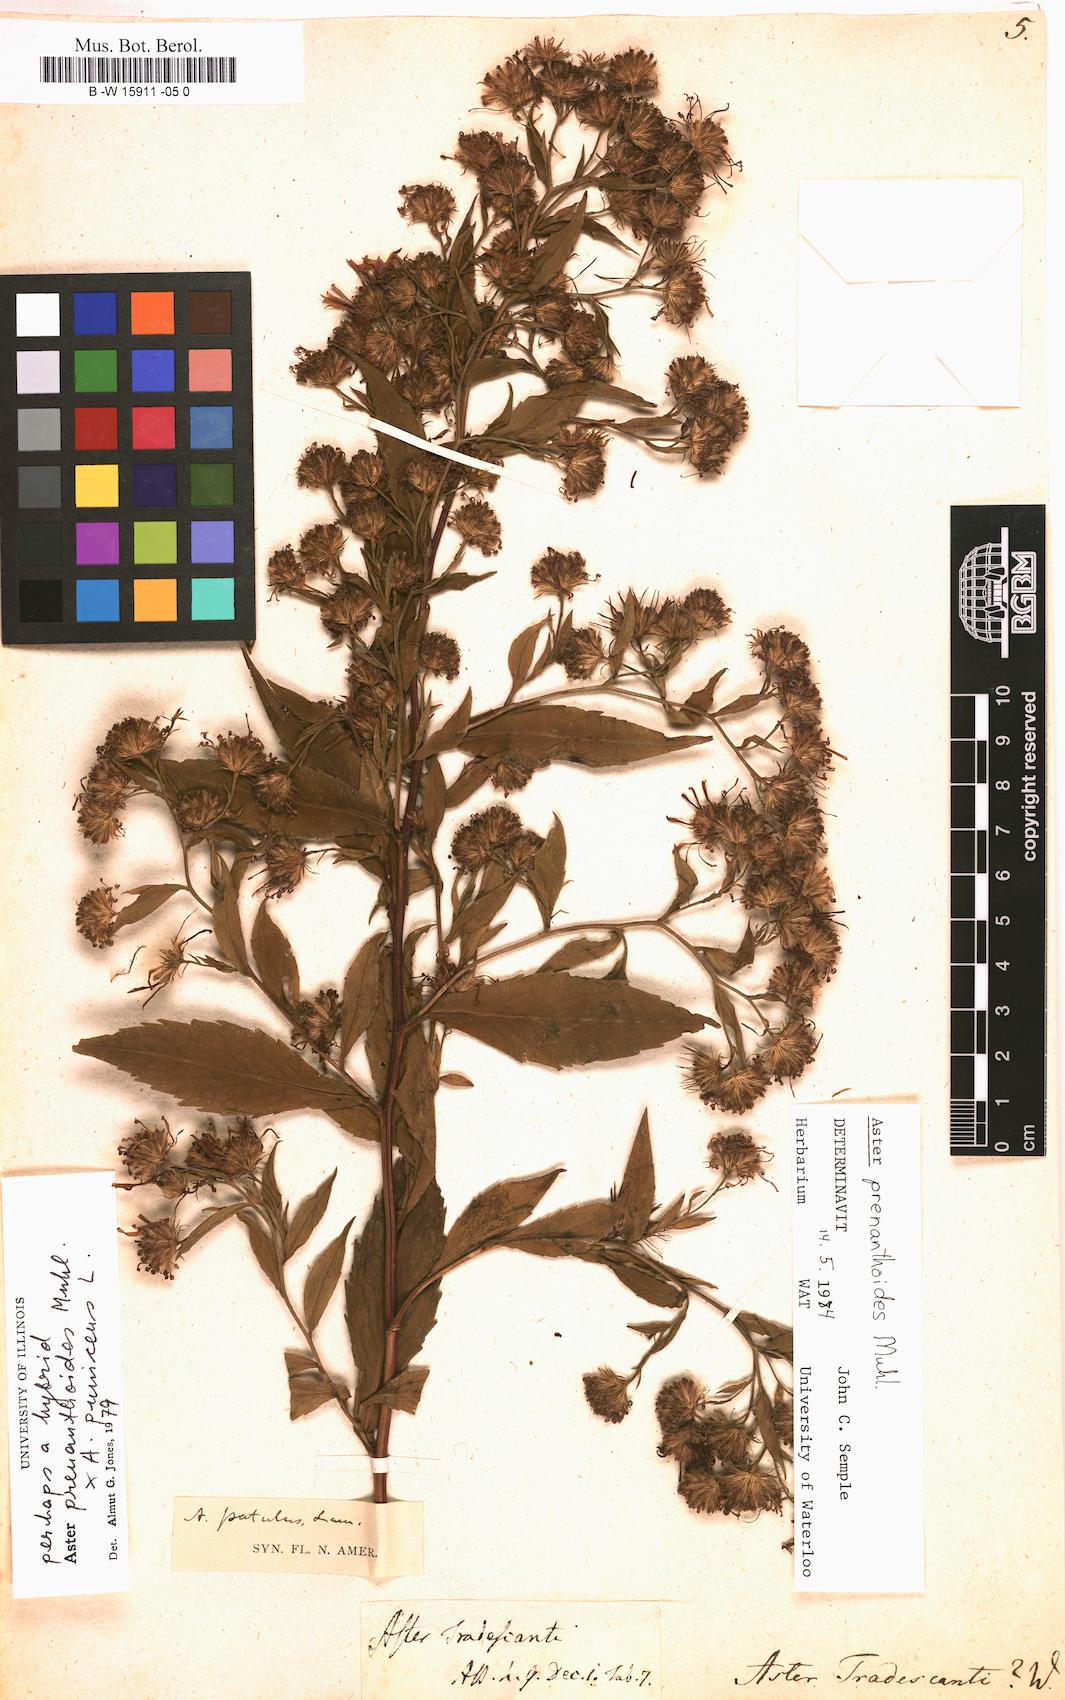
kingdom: Plantae
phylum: Tracheophyta
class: Magnoliopsida
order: Asterales
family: Asteraceae
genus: Aster
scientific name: Aster tradescanti
